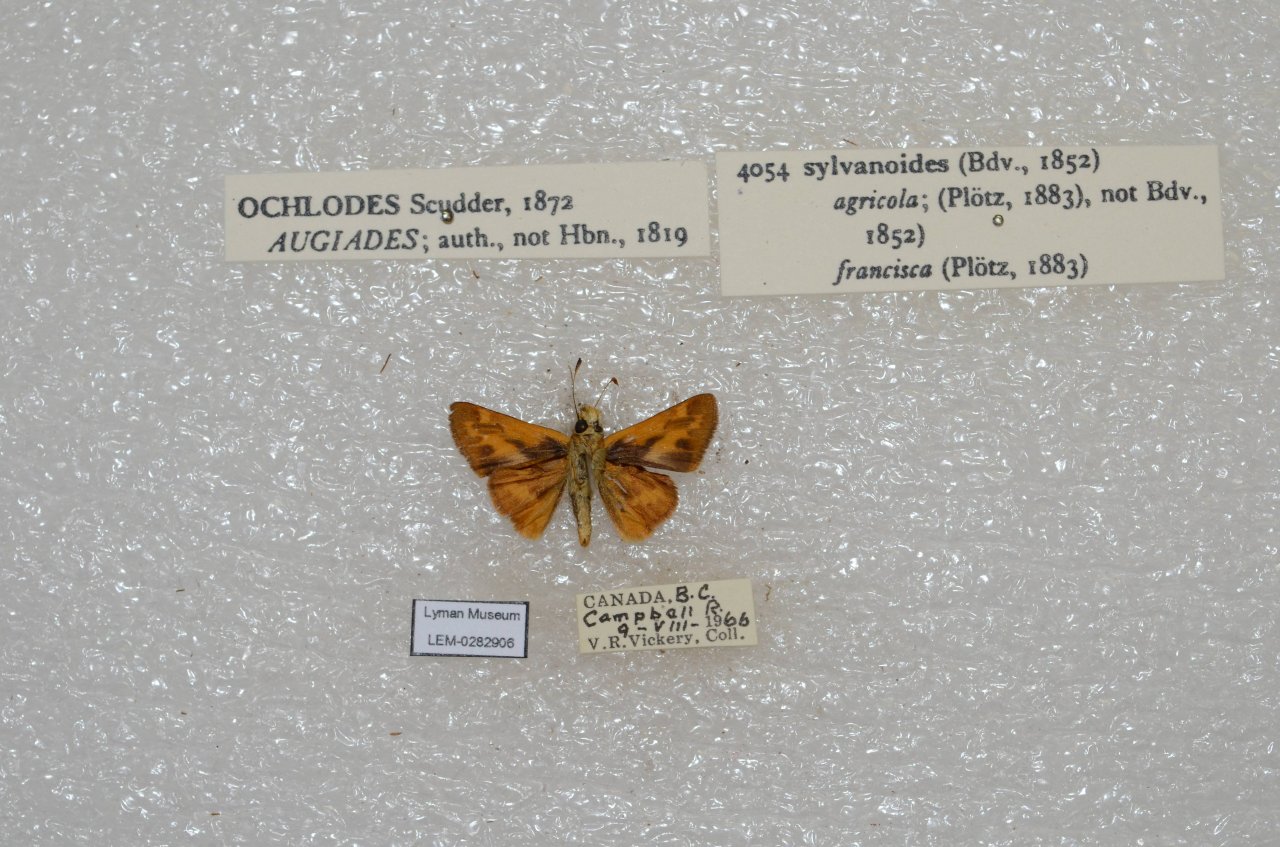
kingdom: Animalia
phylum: Arthropoda
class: Insecta
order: Lepidoptera
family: Hesperiidae
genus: Ochlodes
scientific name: Ochlodes sylvanoides
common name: Woodland Skipper
